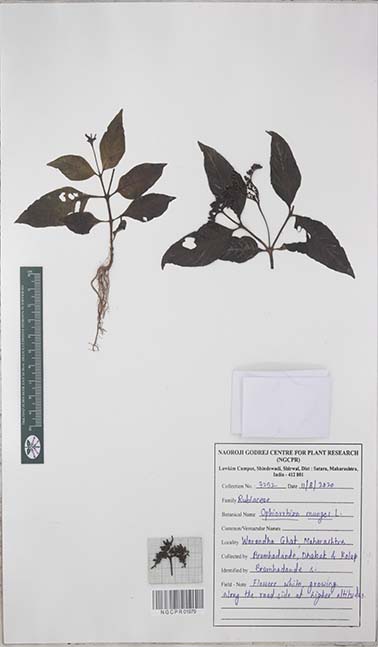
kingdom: Plantae
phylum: Tracheophyta
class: Magnoliopsida
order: Gentianales
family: Rubiaceae
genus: Ophiorrhiza
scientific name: Ophiorrhiza mungos
